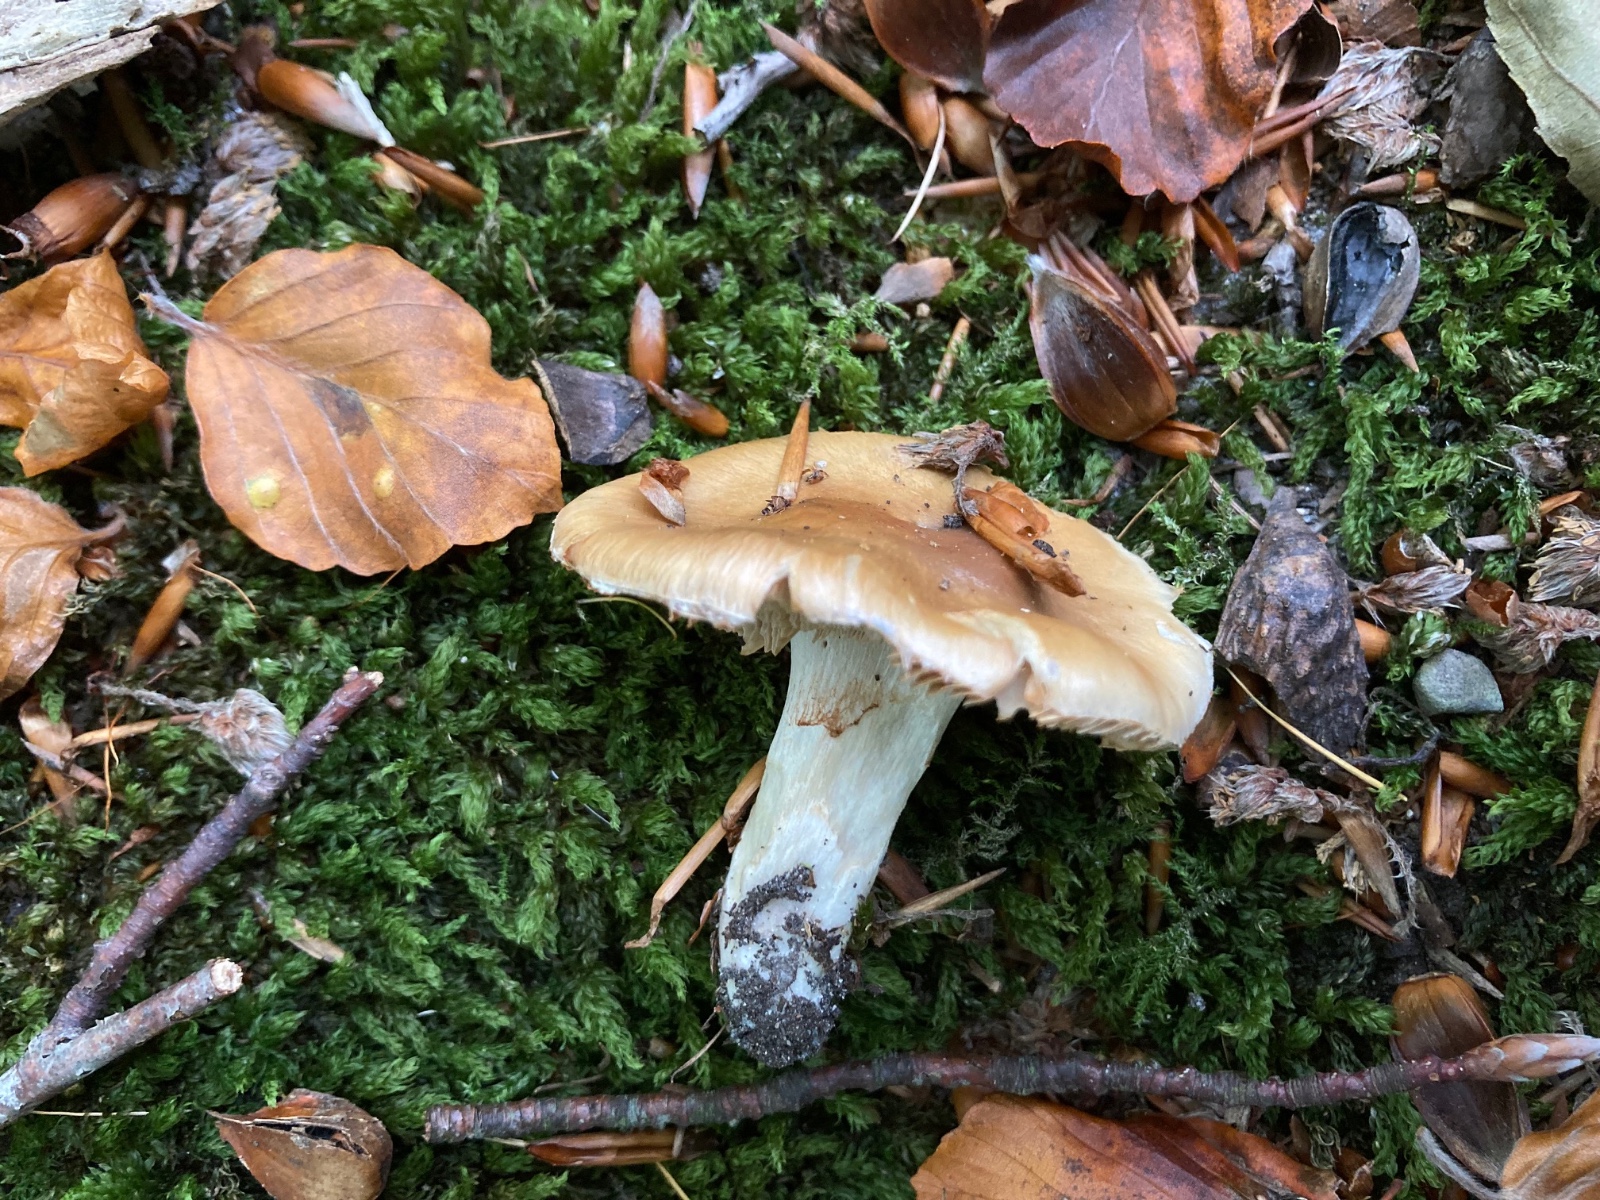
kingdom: Fungi
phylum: Basidiomycota
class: Agaricomycetes
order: Agaricales
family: Cortinariaceae
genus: Cortinarius
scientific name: Cortinarius livido-ochraceus
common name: halvhøj slørhat
